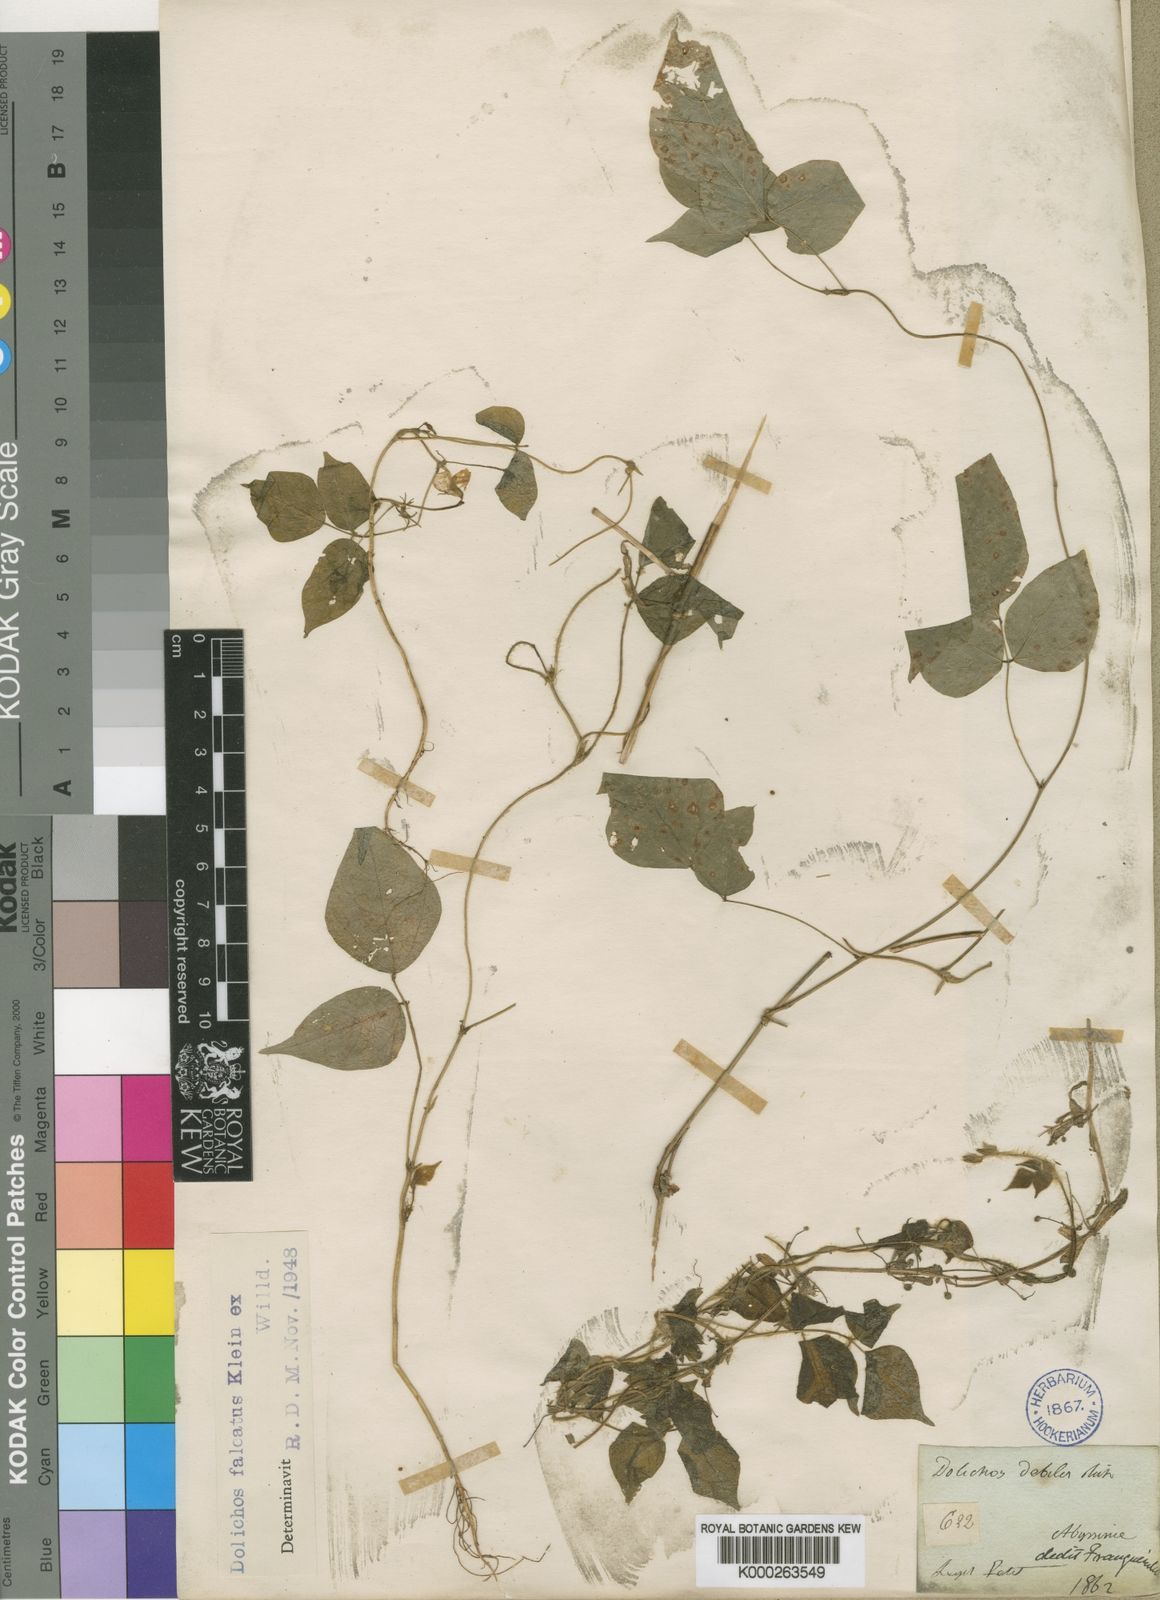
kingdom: Plantae
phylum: Tracheophyta
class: Magnoliopsida
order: Fabales
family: Fabaceae
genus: Dolichos
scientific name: Dolichos trilobus
